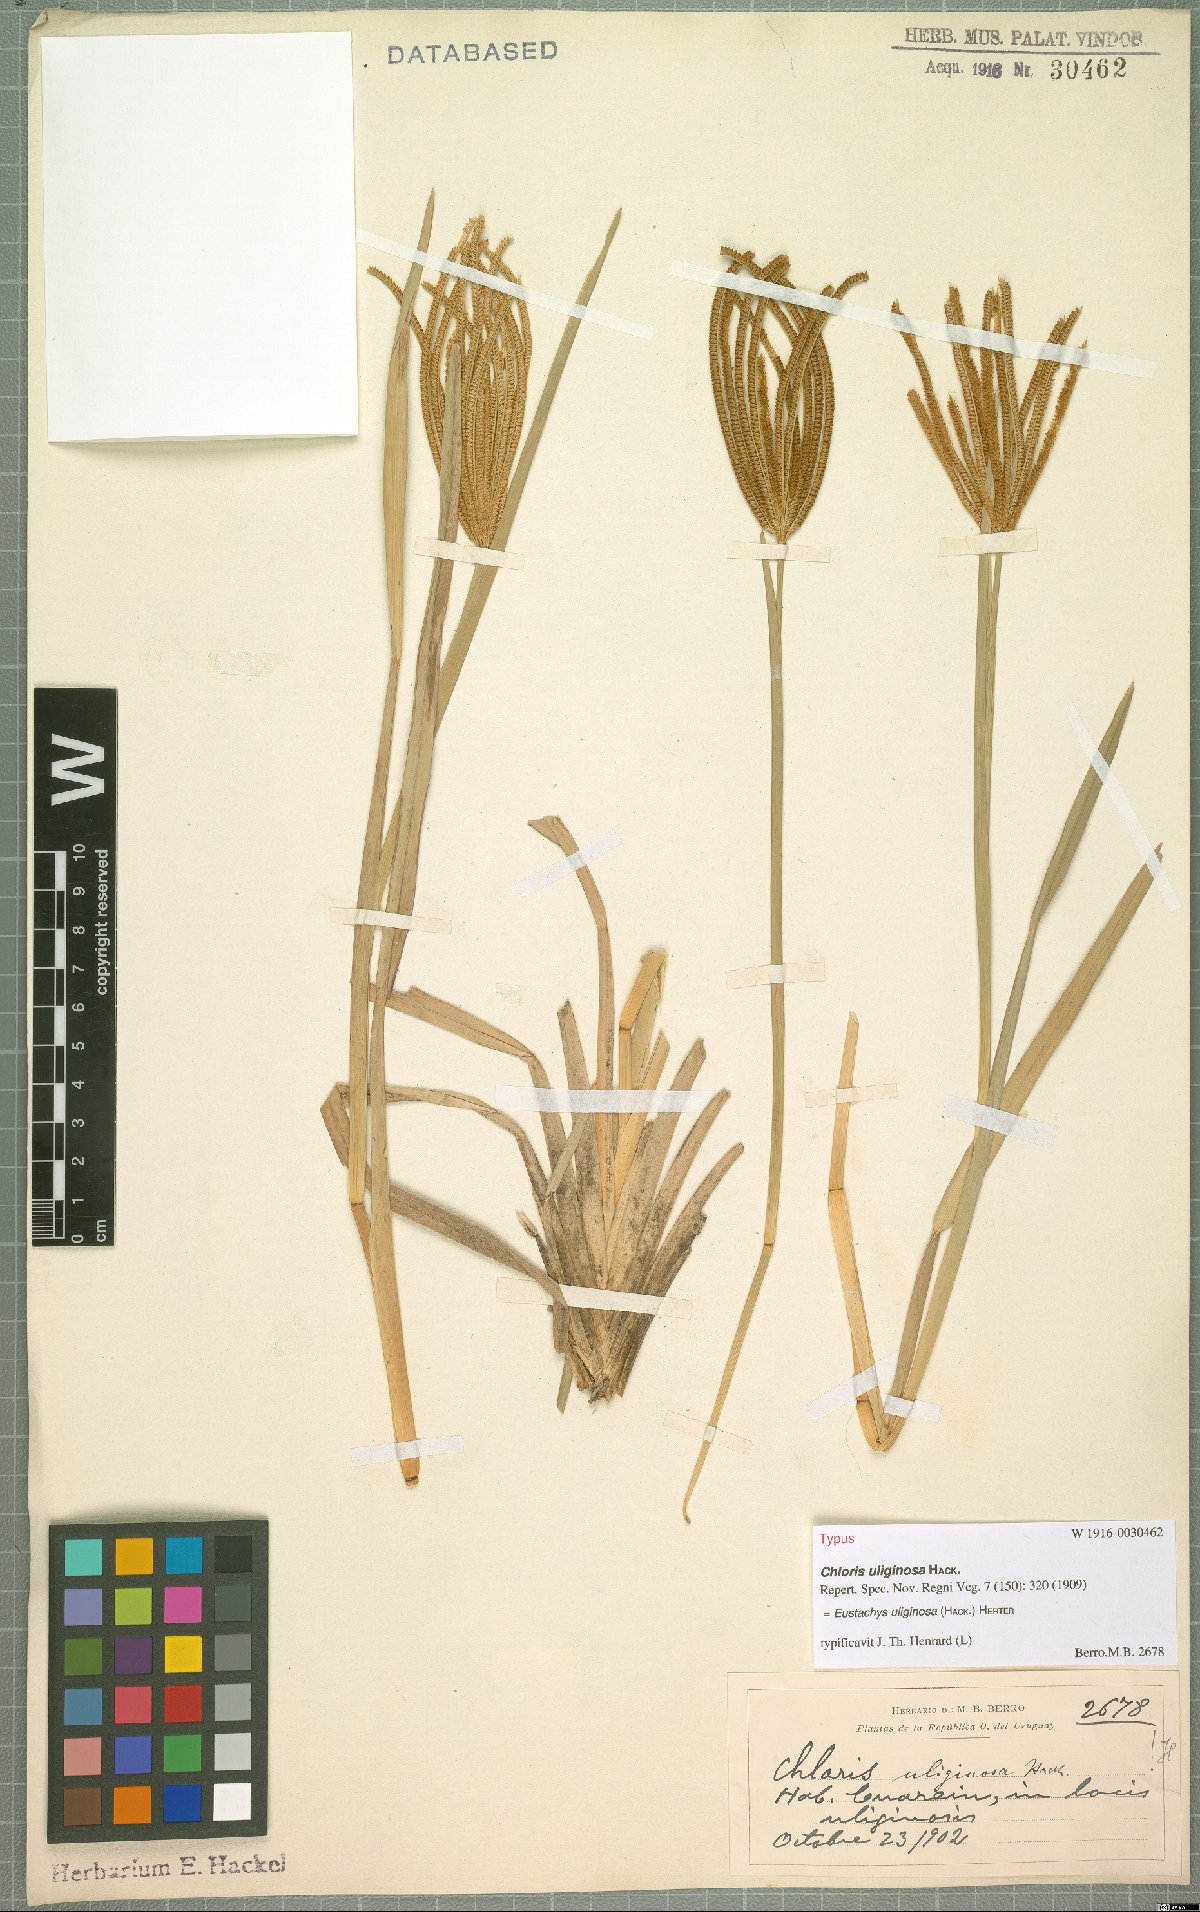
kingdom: Plantae
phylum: Tracheophyta
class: Liliopsida
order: Poales
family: Poaceae
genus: Eustachys
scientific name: Eustachys uliginosa
